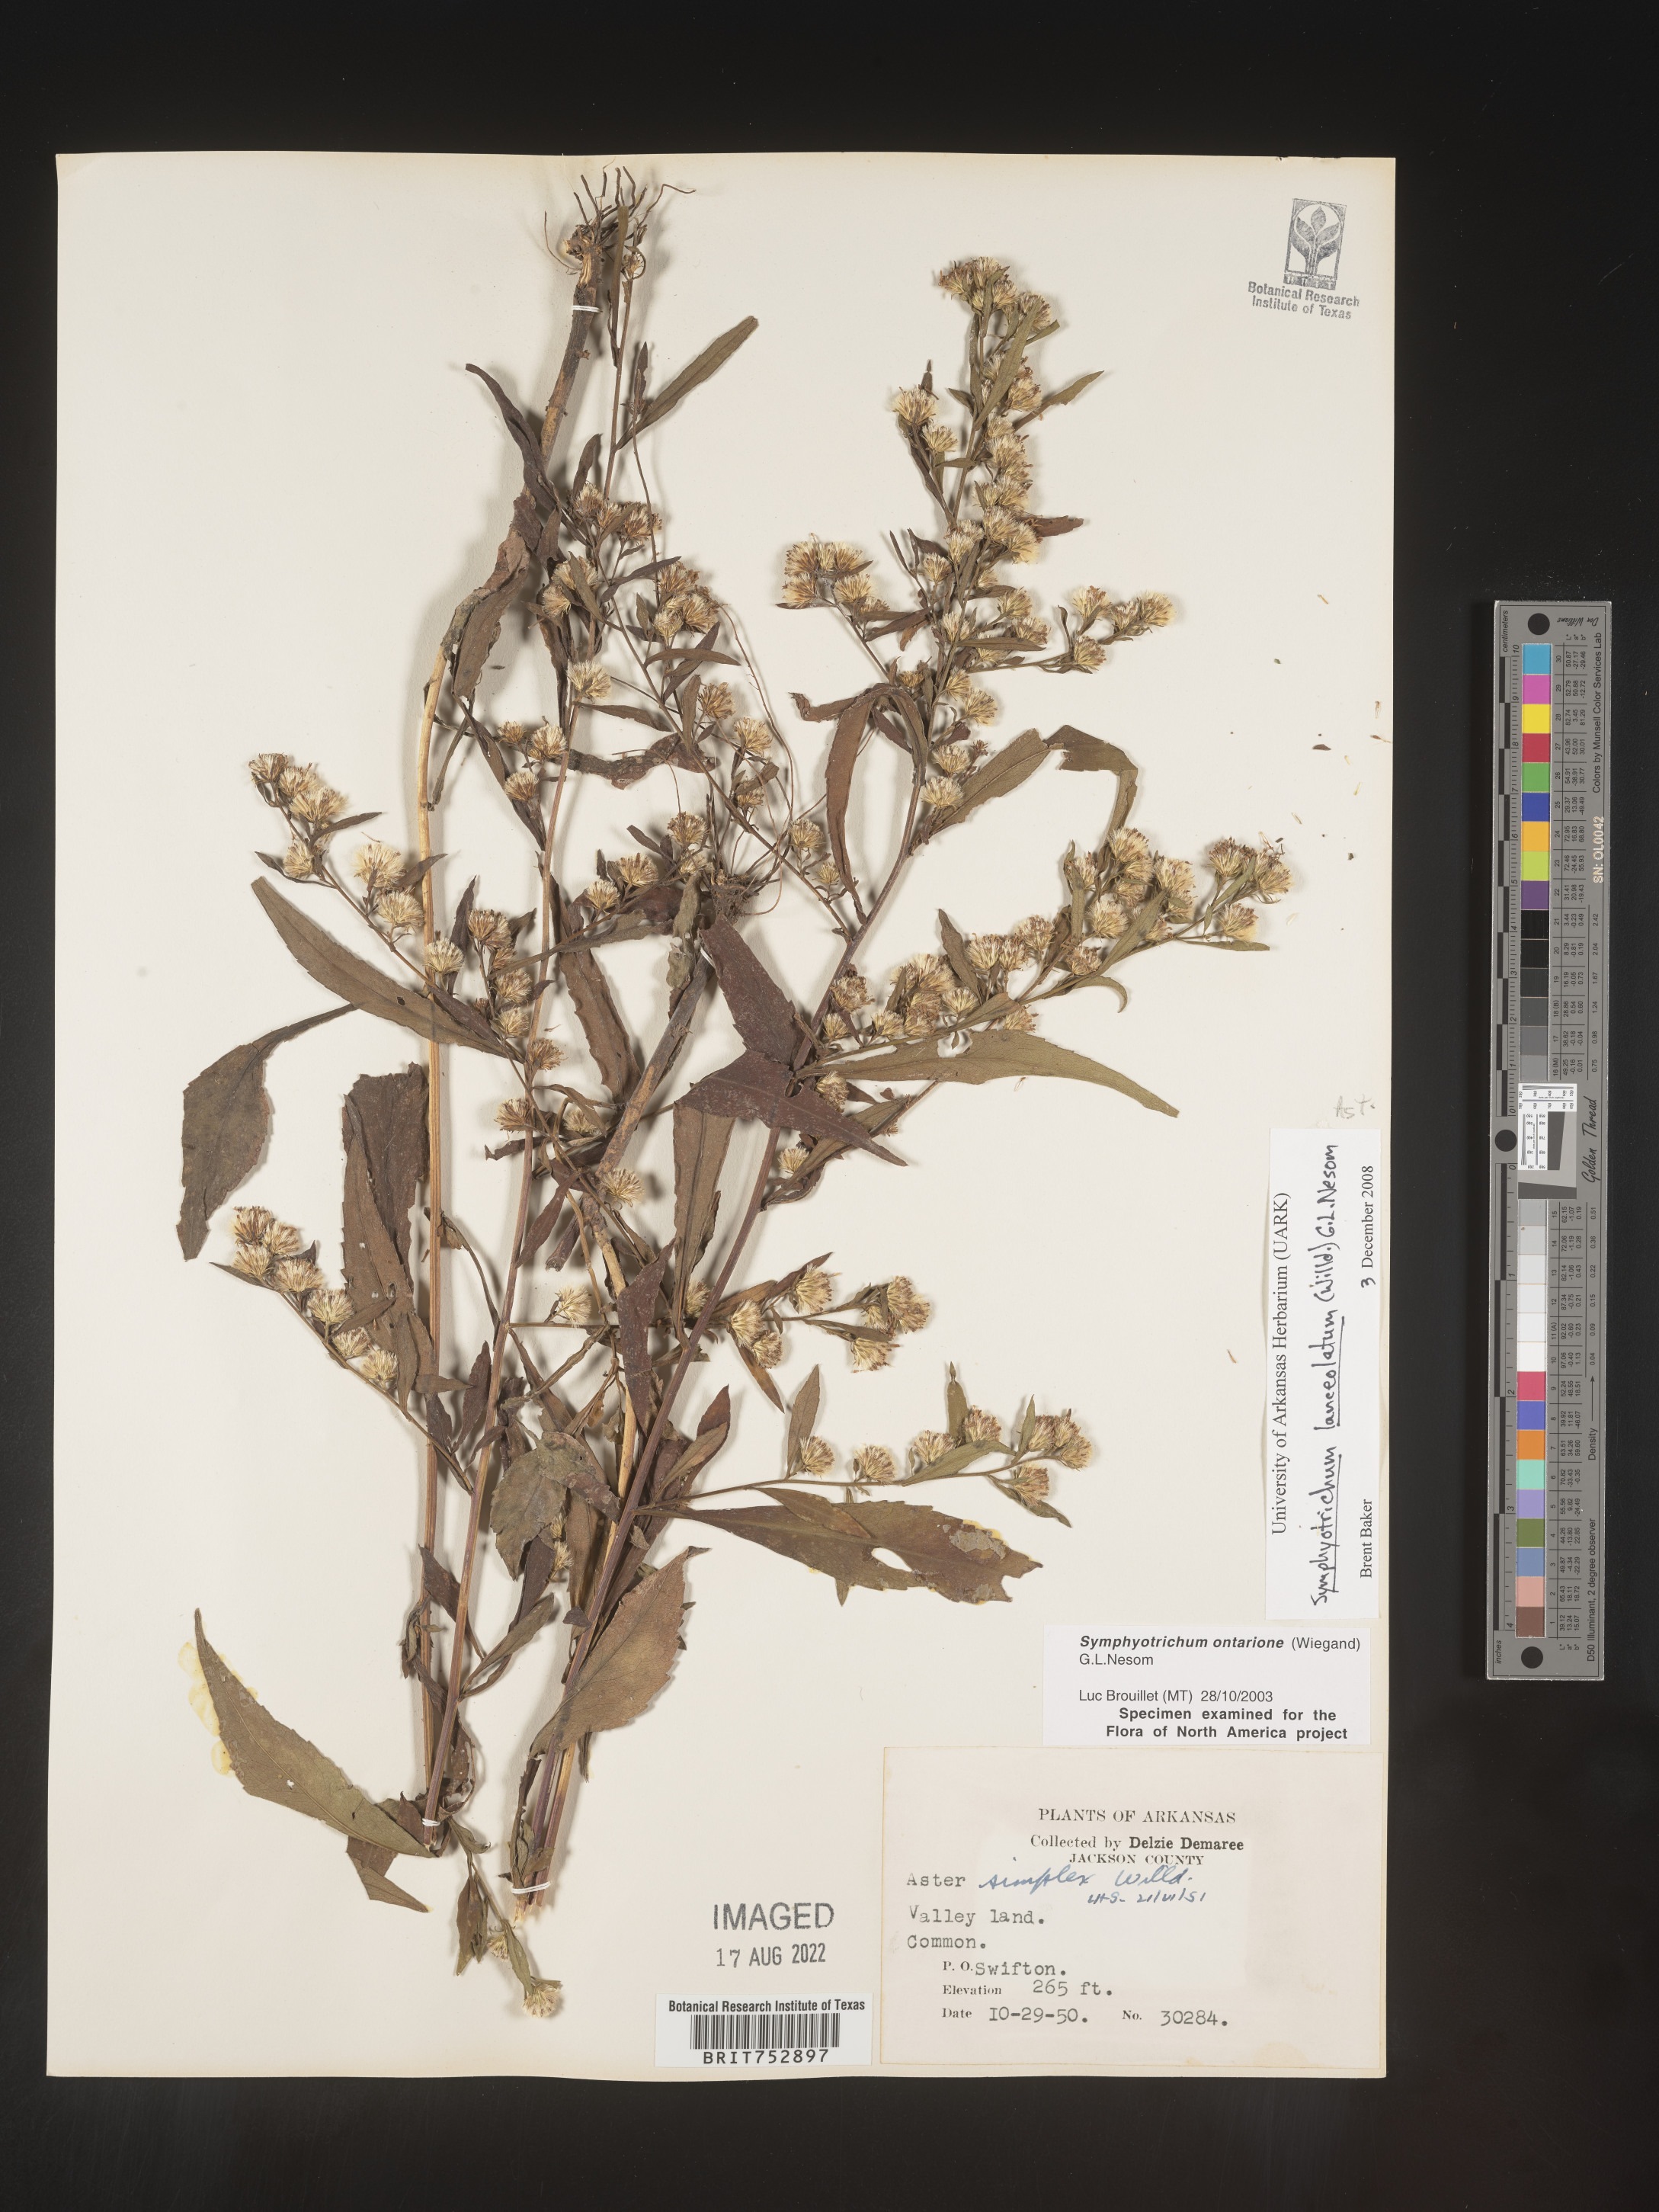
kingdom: Plantae
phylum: Tracheophyta
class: Magnoliopsida
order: Asterales
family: Asteraceae
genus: Symphyotrichum
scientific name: Symphyotrichum lateriflorum
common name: Calico aster
